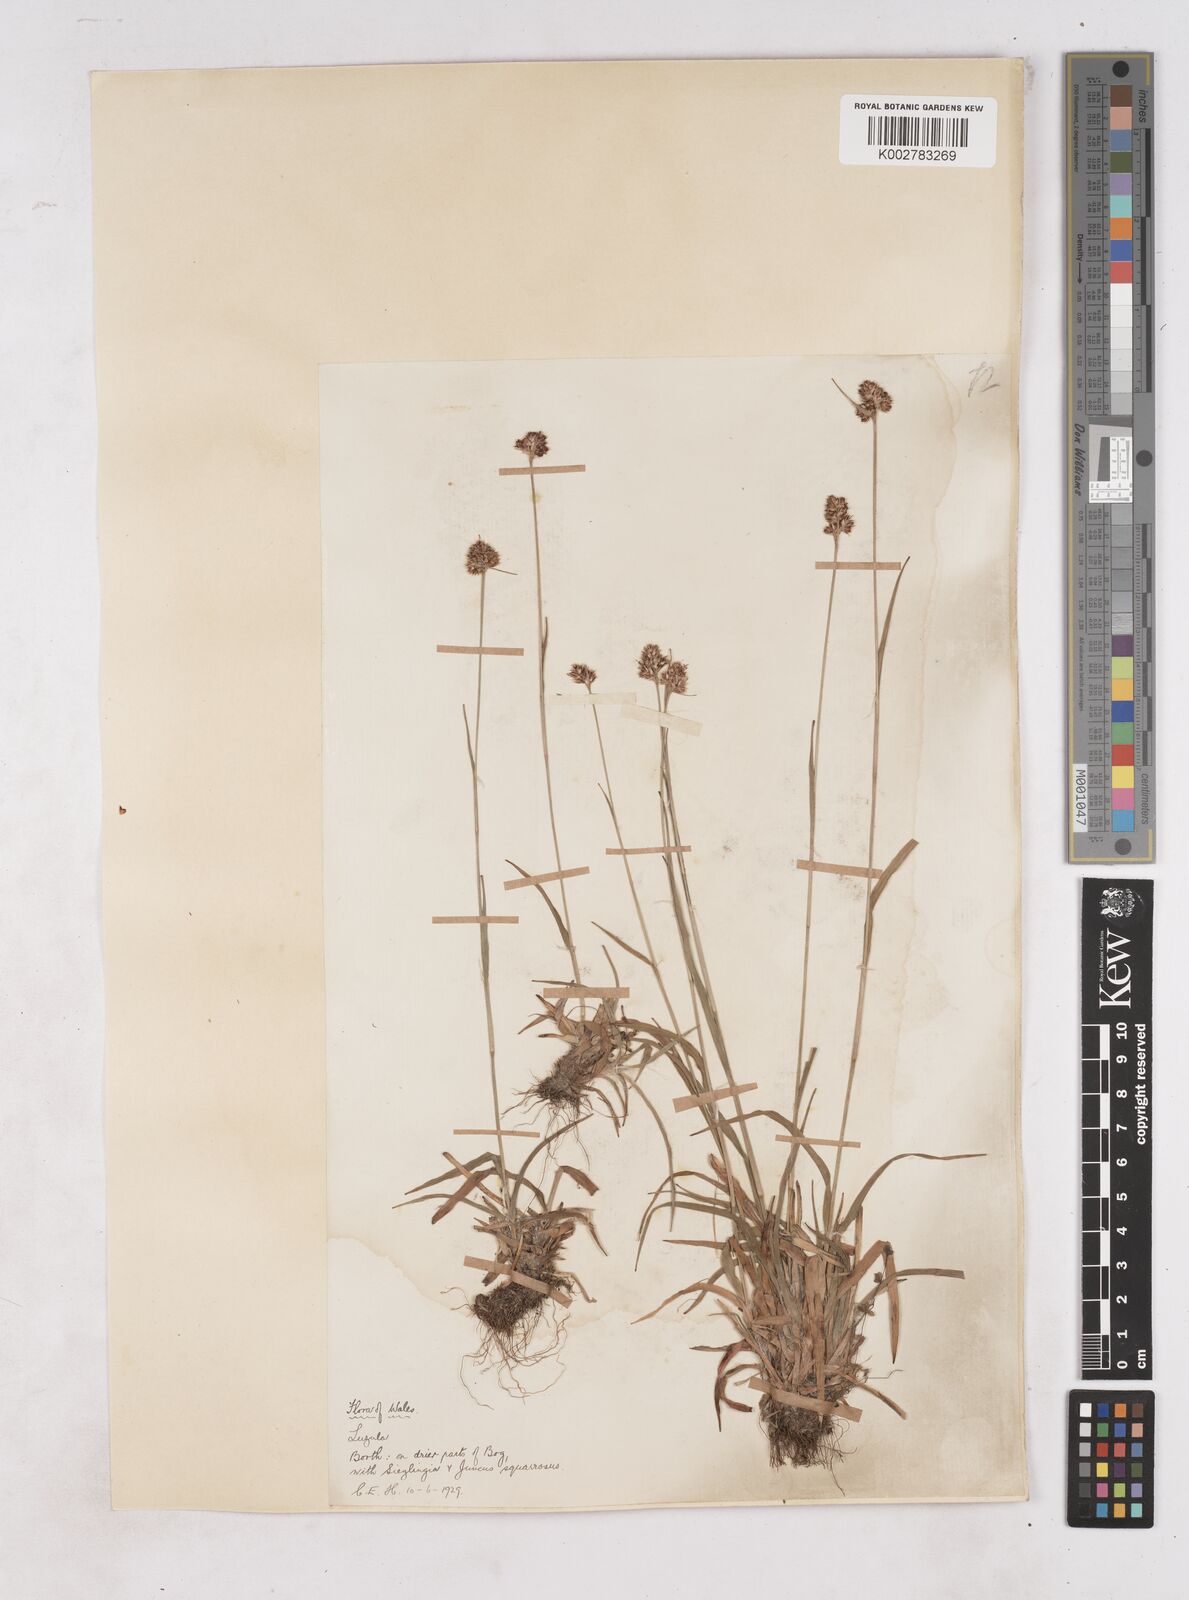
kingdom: Plantae
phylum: Tracheophyta
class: Liliopsida
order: Poales
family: Juncaceae
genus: Luzula
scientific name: Luzula multiflora
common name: Heath wood-rush
